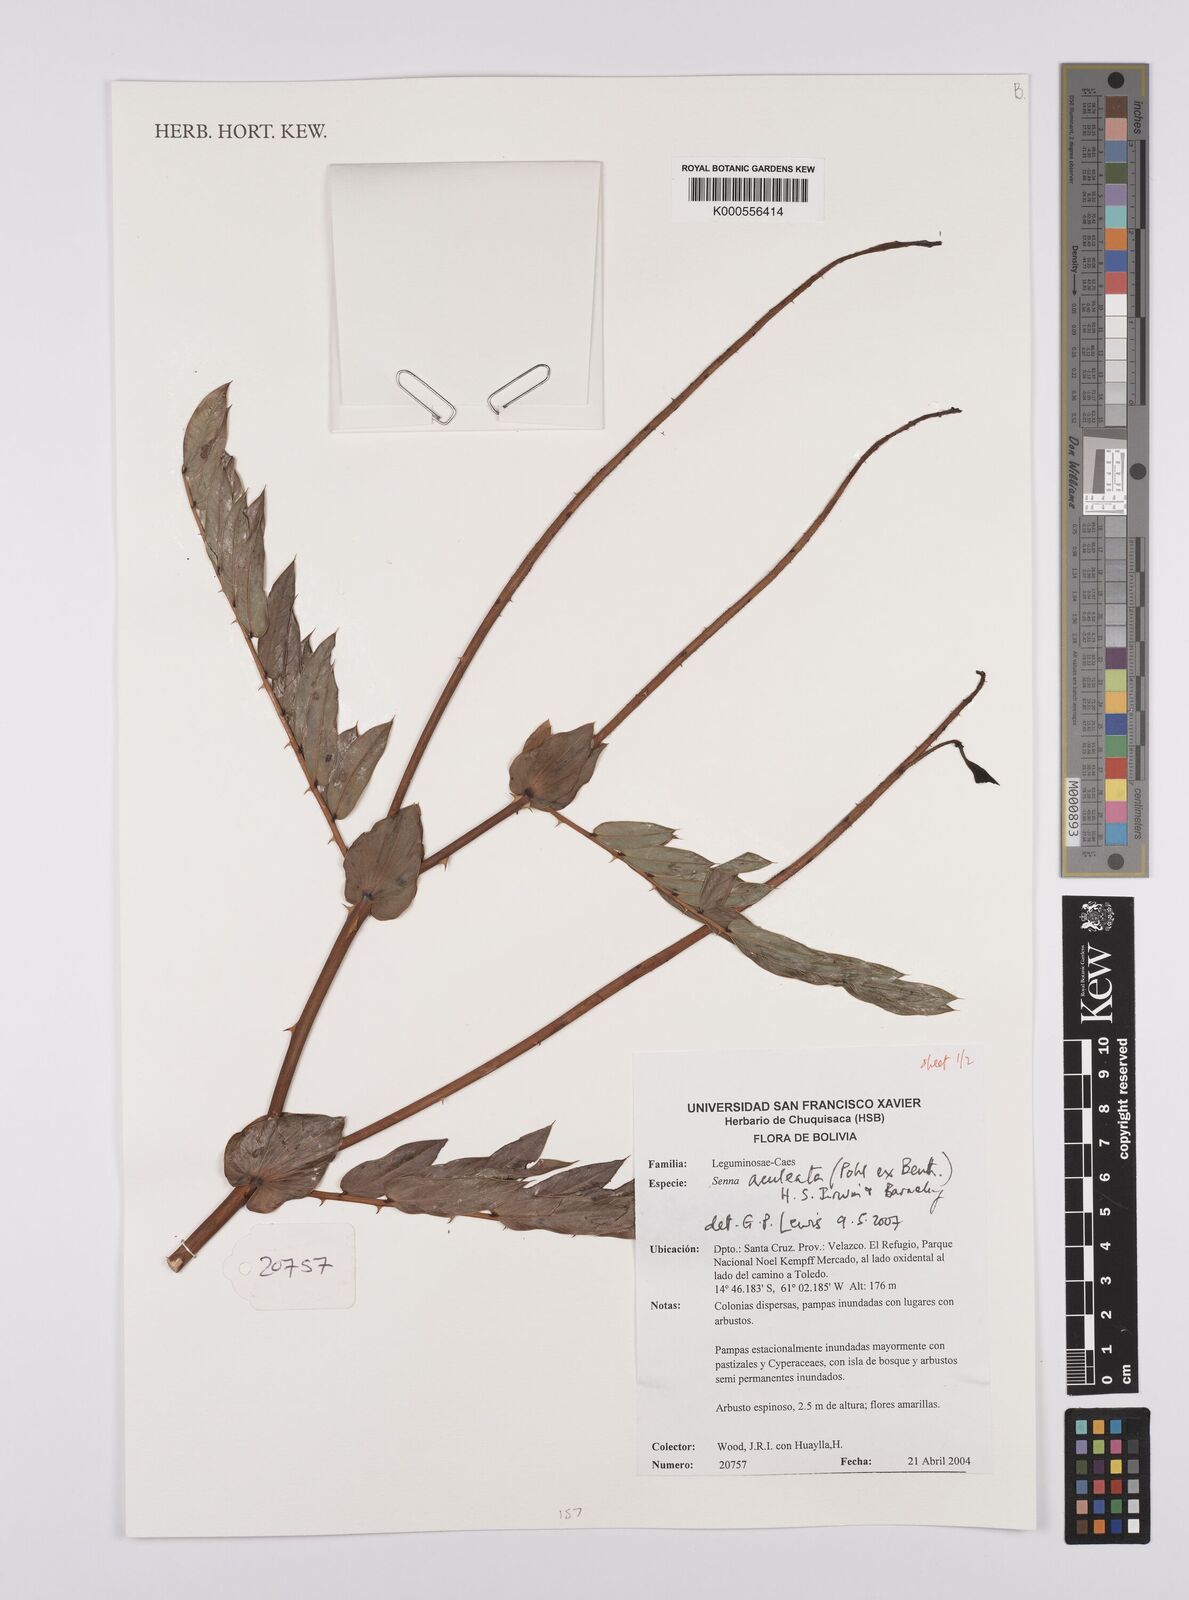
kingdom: Plantae
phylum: Tracheophyta
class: Magnoliopsida
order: Fabales
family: Fabaceae
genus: Senna
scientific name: Senna aculeata
